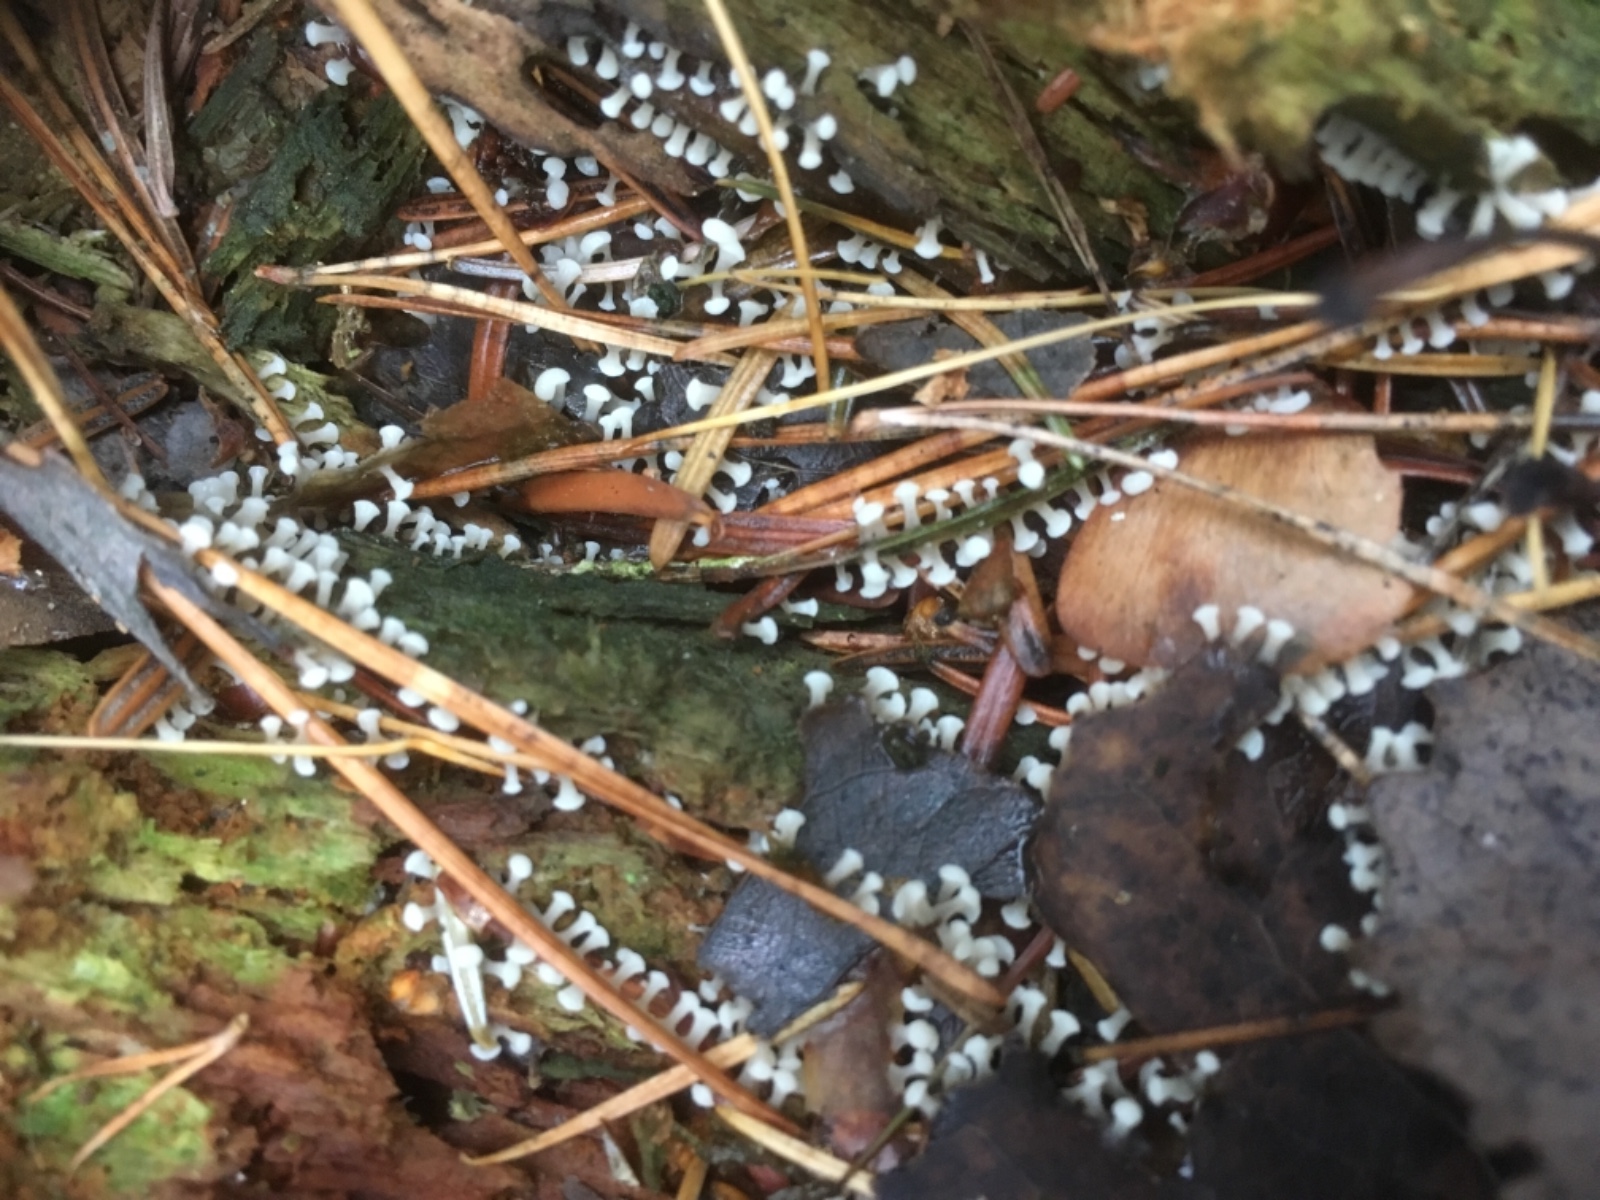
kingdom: Protozoa
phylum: Mycetozoa
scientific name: Mycetozoa
